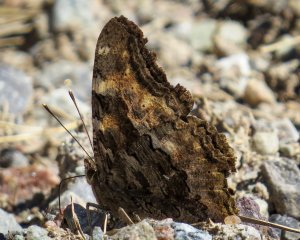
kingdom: Animalia
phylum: Arthropoda
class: Insecta
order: Lepidoptera
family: Nymphalidae
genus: Polygonia
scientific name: Polygonia vaualbum
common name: Compton Tortoiseshell
